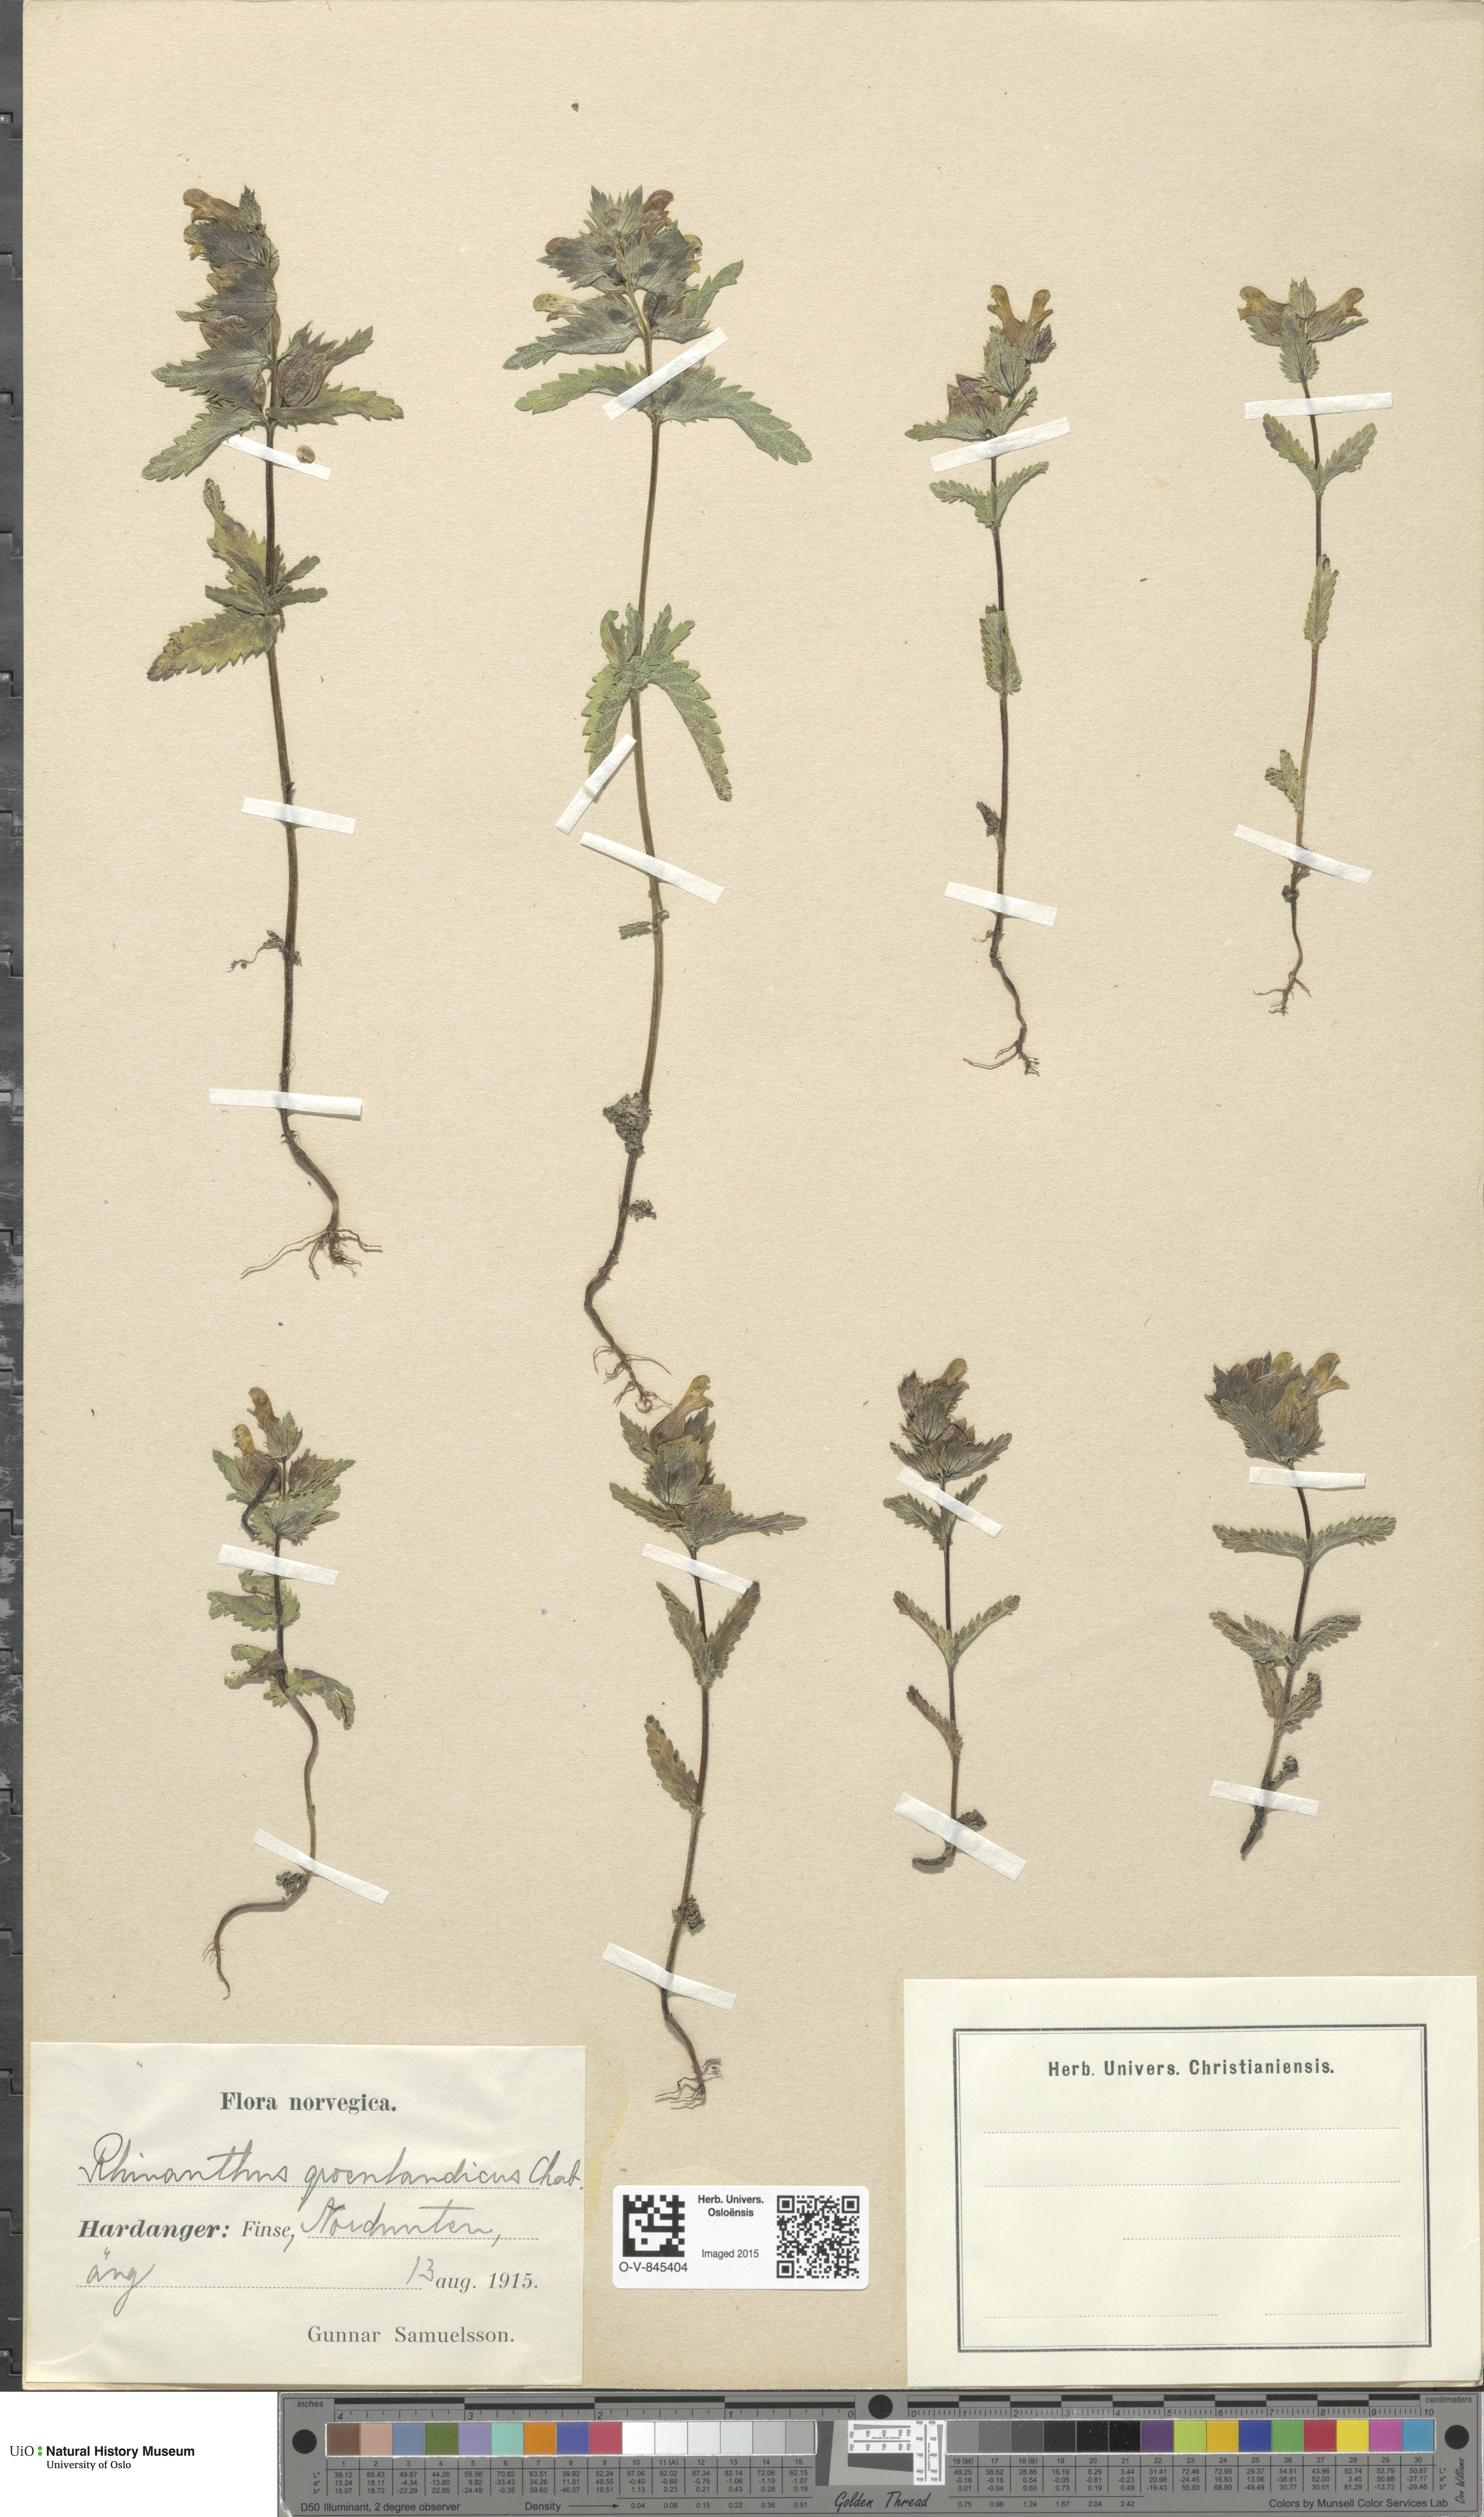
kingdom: Plantae
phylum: Tracheophyta
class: Magnoliopsida
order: Lamiales
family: Orobanchaceae
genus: Rhinanthus
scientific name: Rhinanthus groenlandicus
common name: Little yellow rattle
